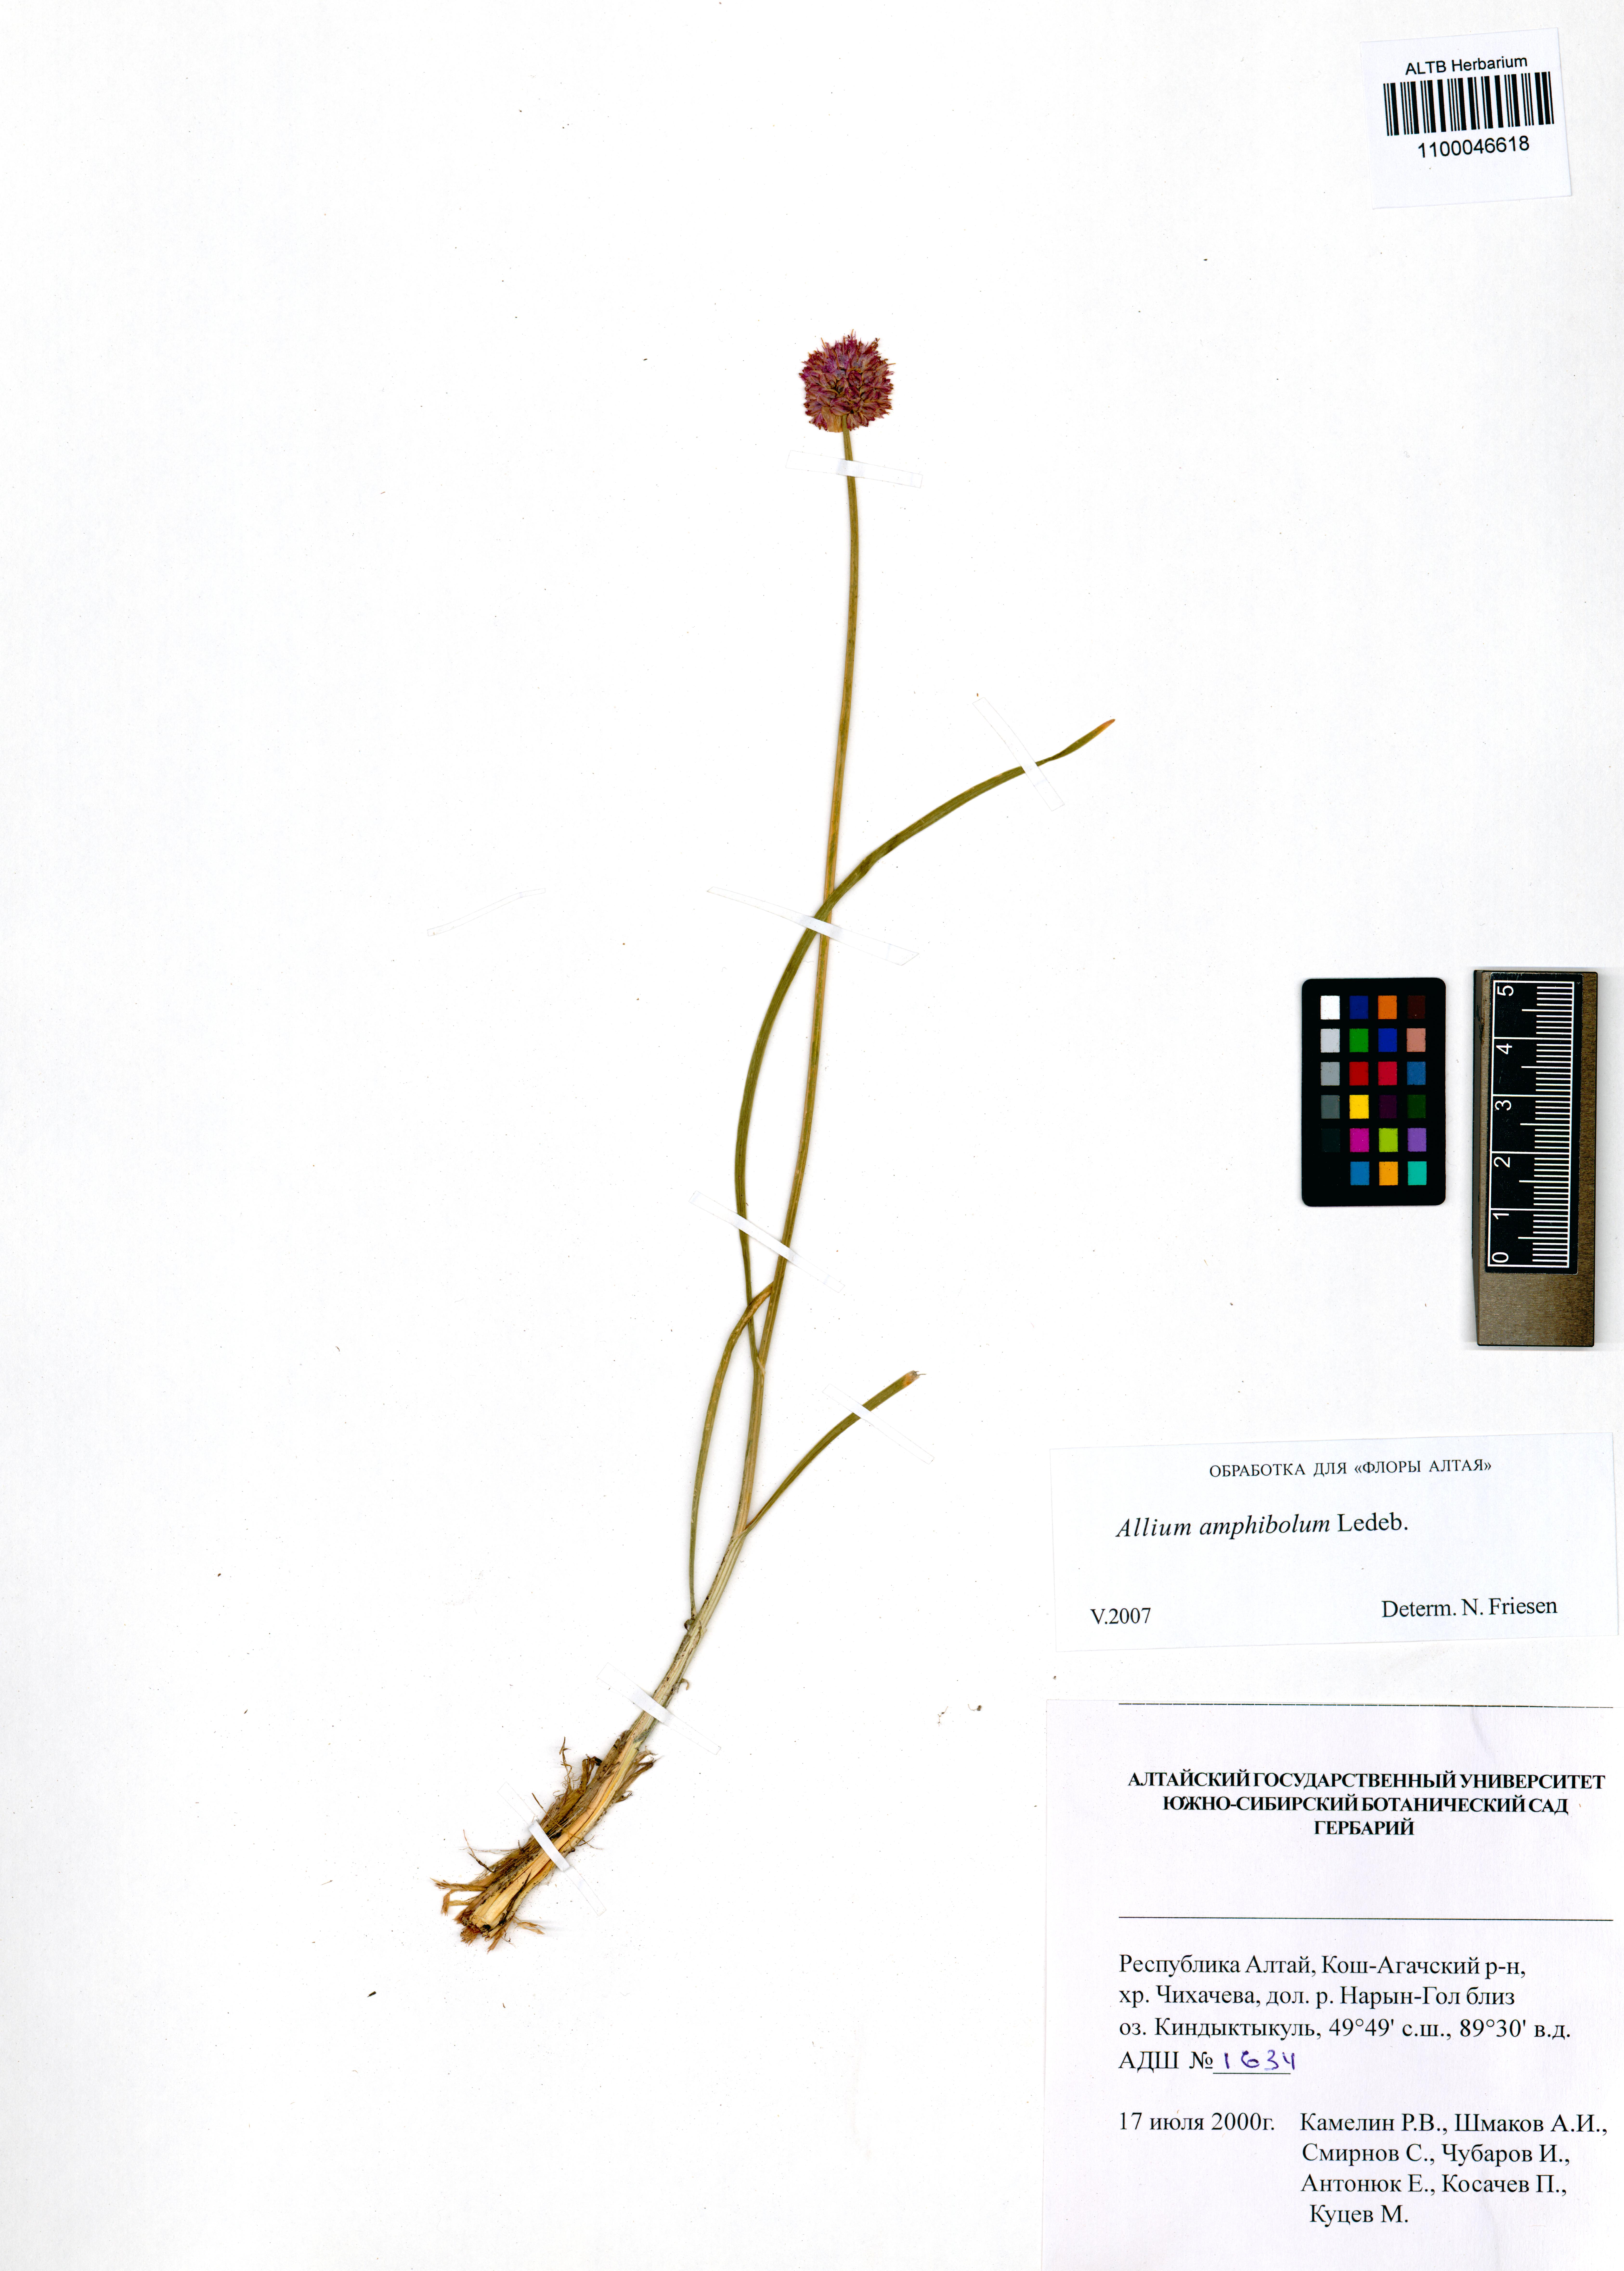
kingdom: Plantae
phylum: Tracheophyta
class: Liliopsida
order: Asparagales
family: Amaryllidaceae
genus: Allium
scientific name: Allium amphibolum
